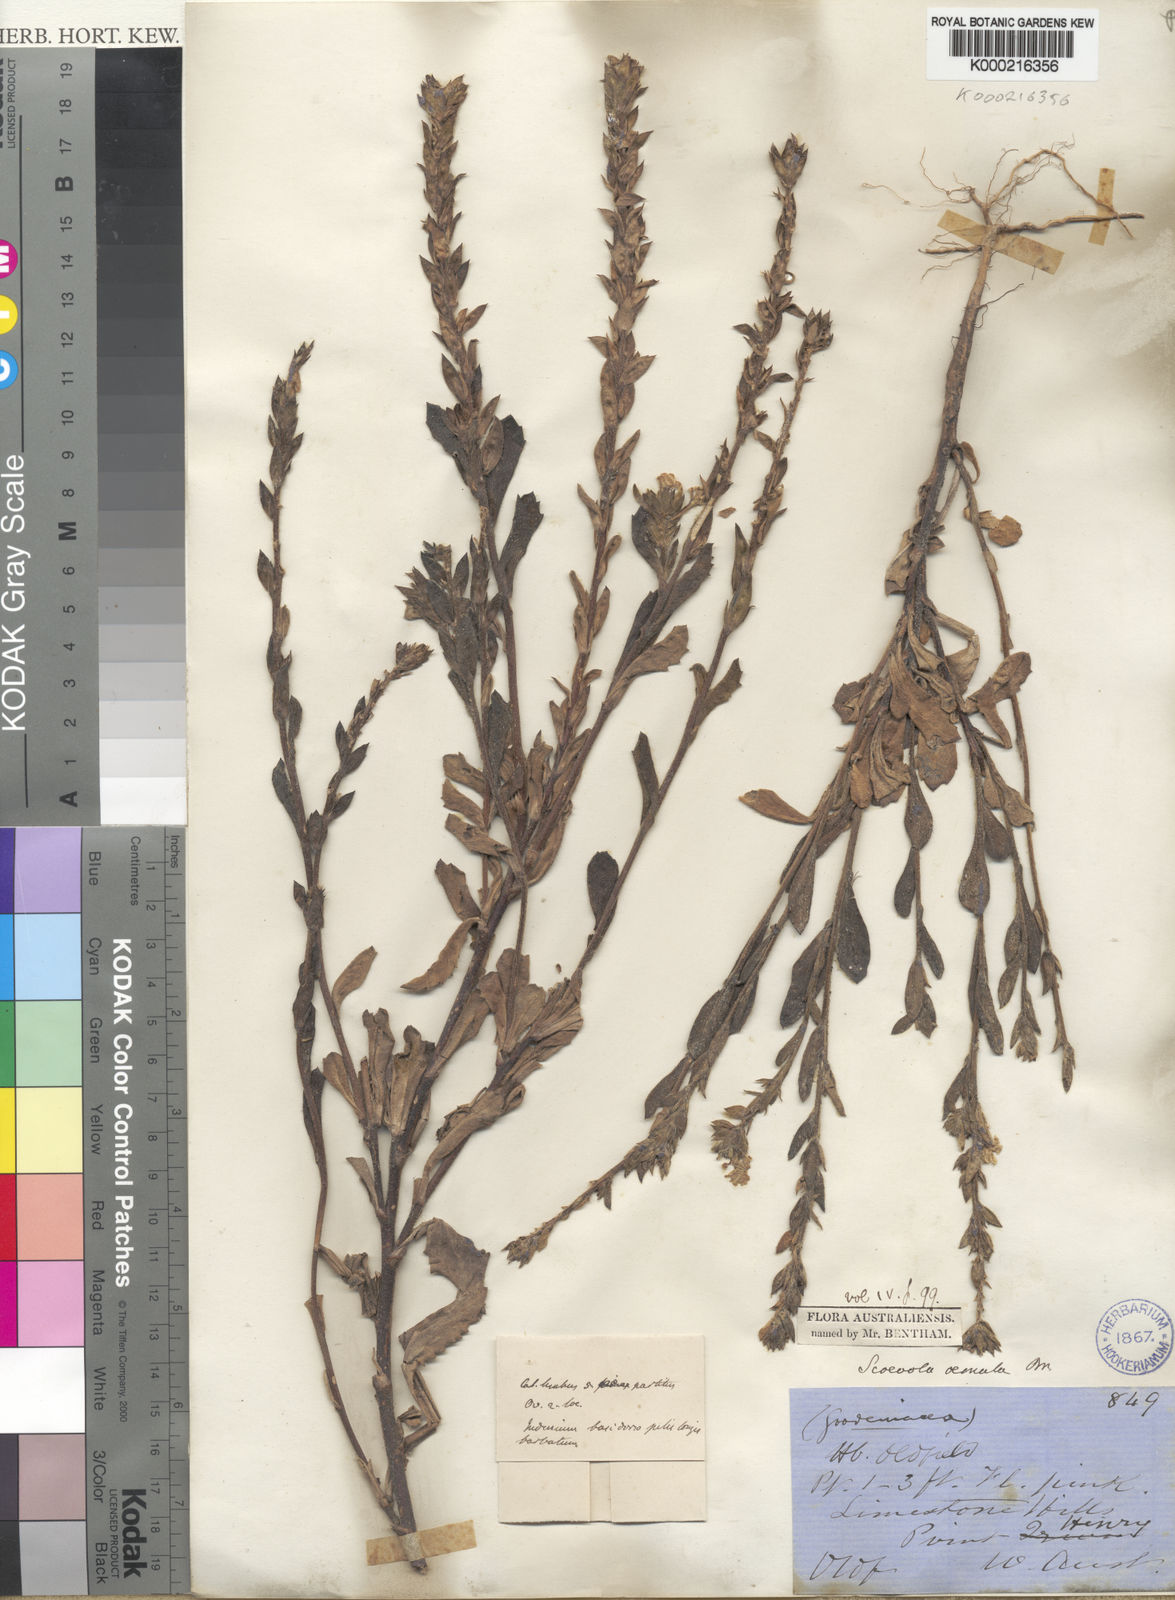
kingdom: Plantae
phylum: Tracheophyta
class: Magnoliopsida
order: Asterales
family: Goodeniaceae
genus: Scaevola
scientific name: Scaevola aemula
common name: Common fanflower
